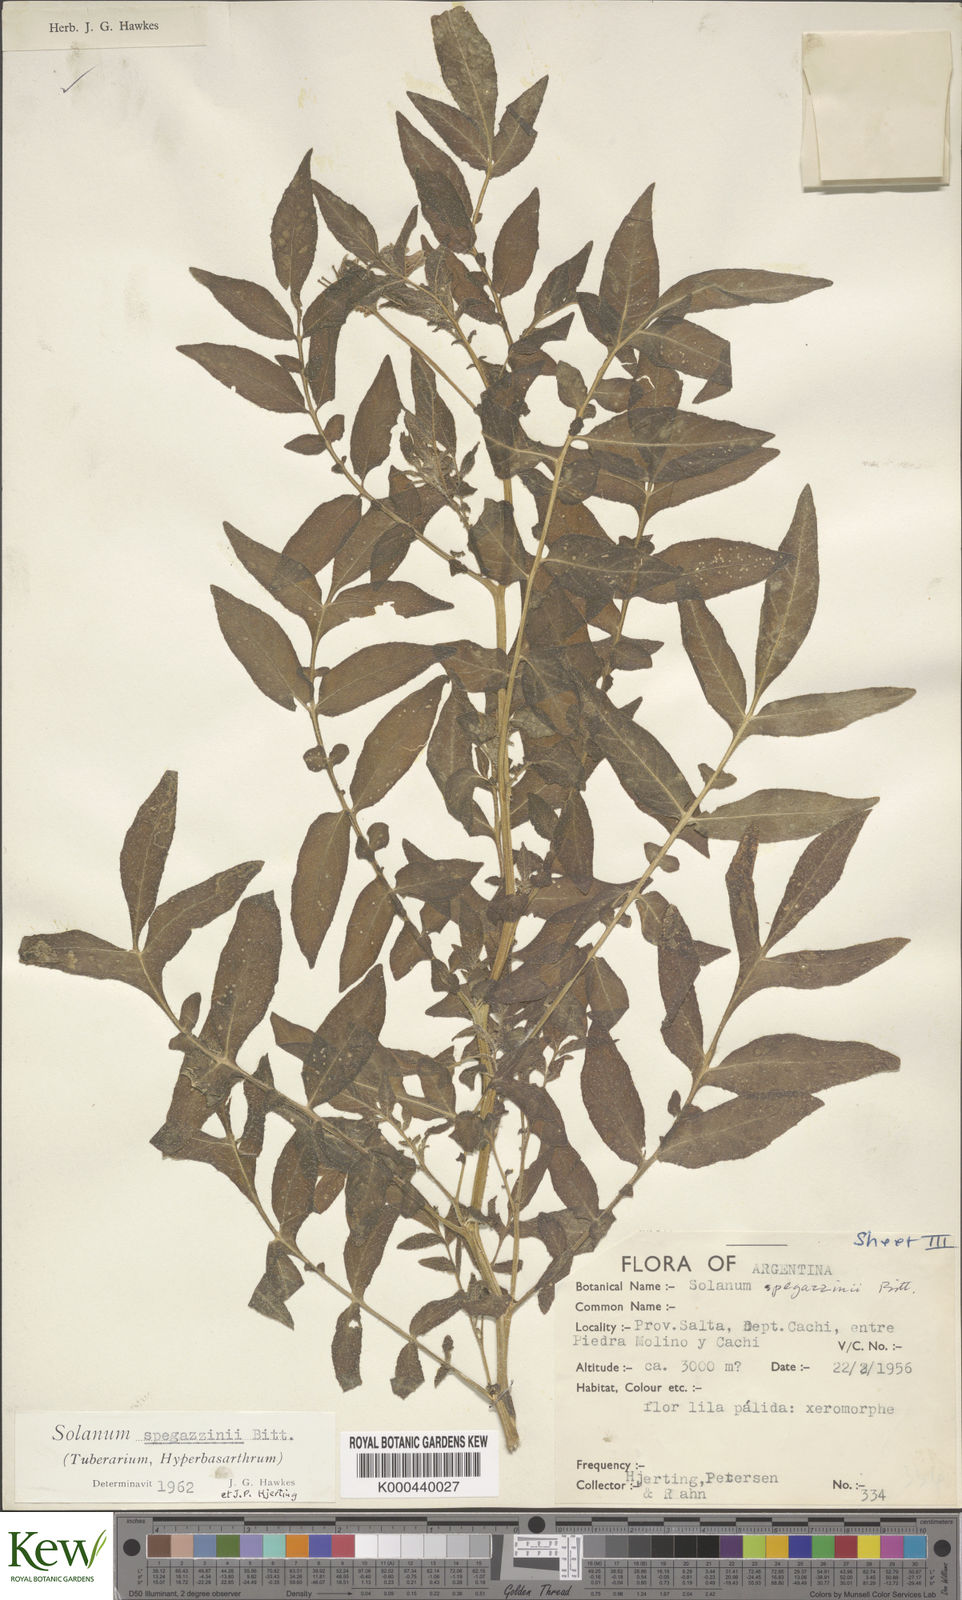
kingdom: Plantae
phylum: Tracheophyta
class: Magnoliopsida
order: Solanales
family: Solanaceae
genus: Solanum
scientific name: Solanum brevicaule
